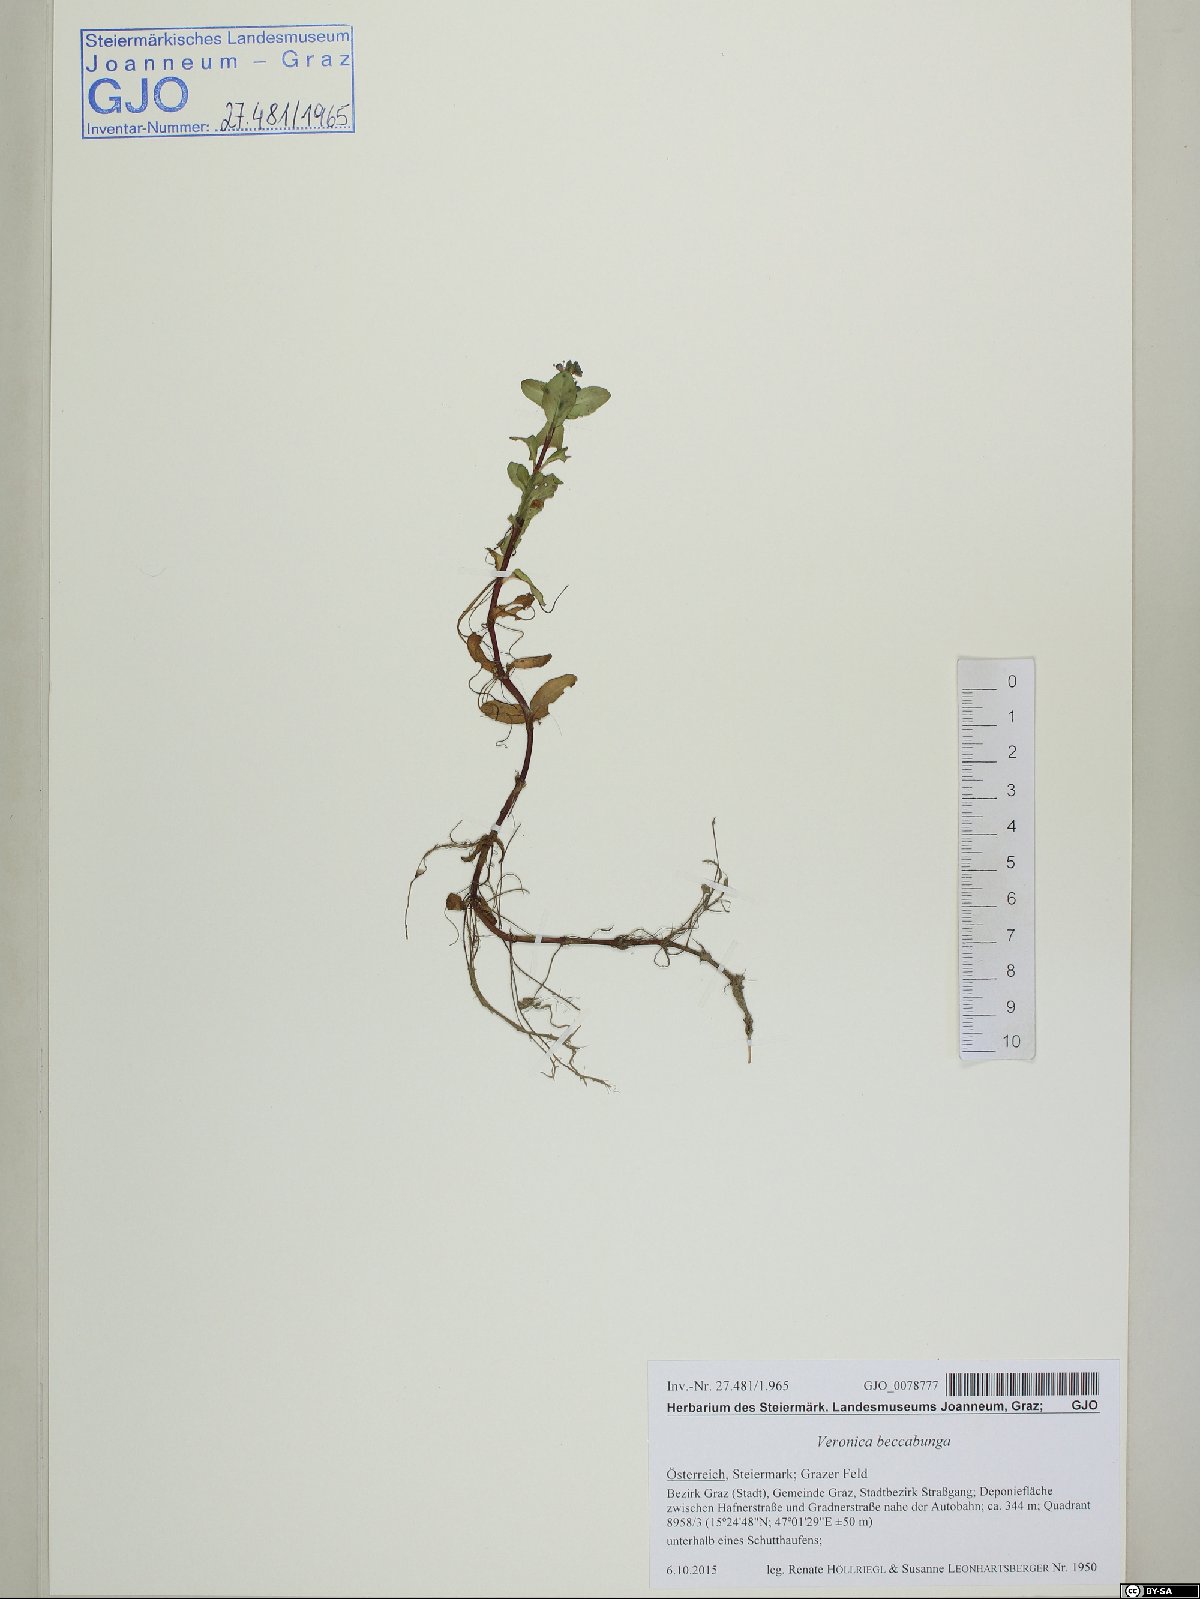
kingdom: Plantae
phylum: Tracheophyta
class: Magnoliopsida
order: Lamiales
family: Plantaginaceae
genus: Veronica
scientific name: Veronica beccabunga
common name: Brooklime
